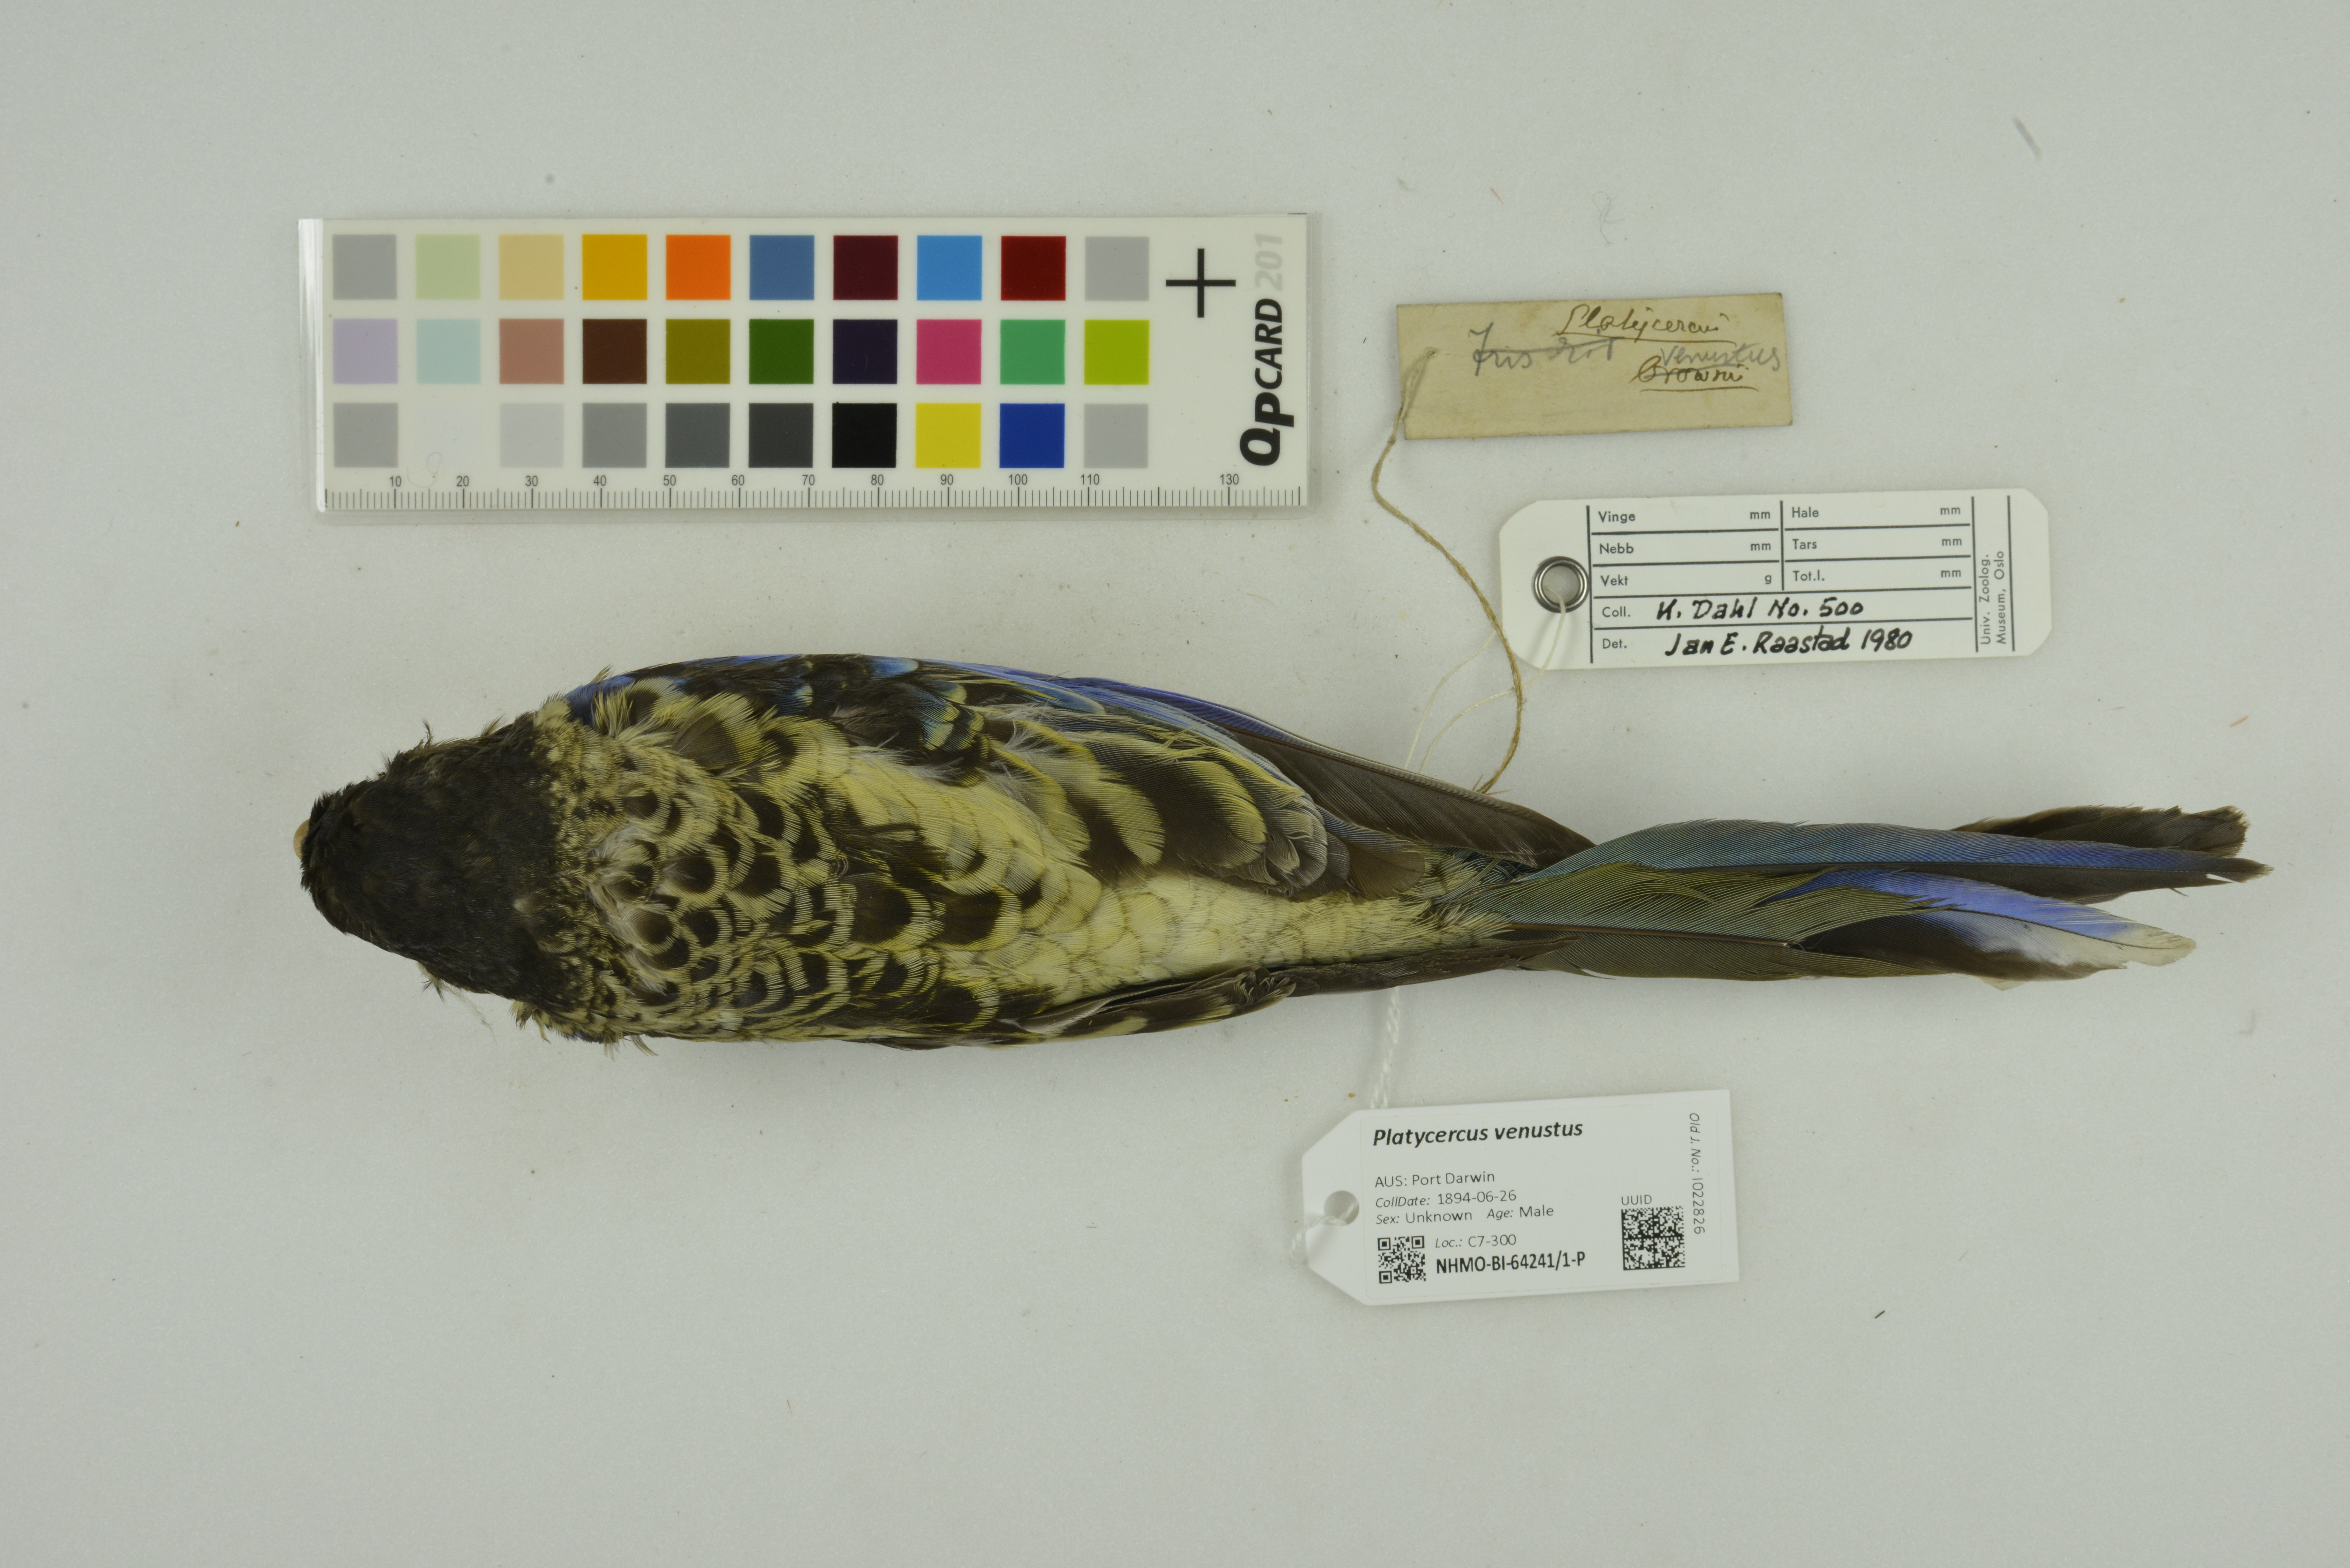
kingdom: Animalia
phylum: Chordata
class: Aves
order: Psittaciformes
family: Psittacidae
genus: Platycercus
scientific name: Platycercus venustus
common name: Northern rosella
